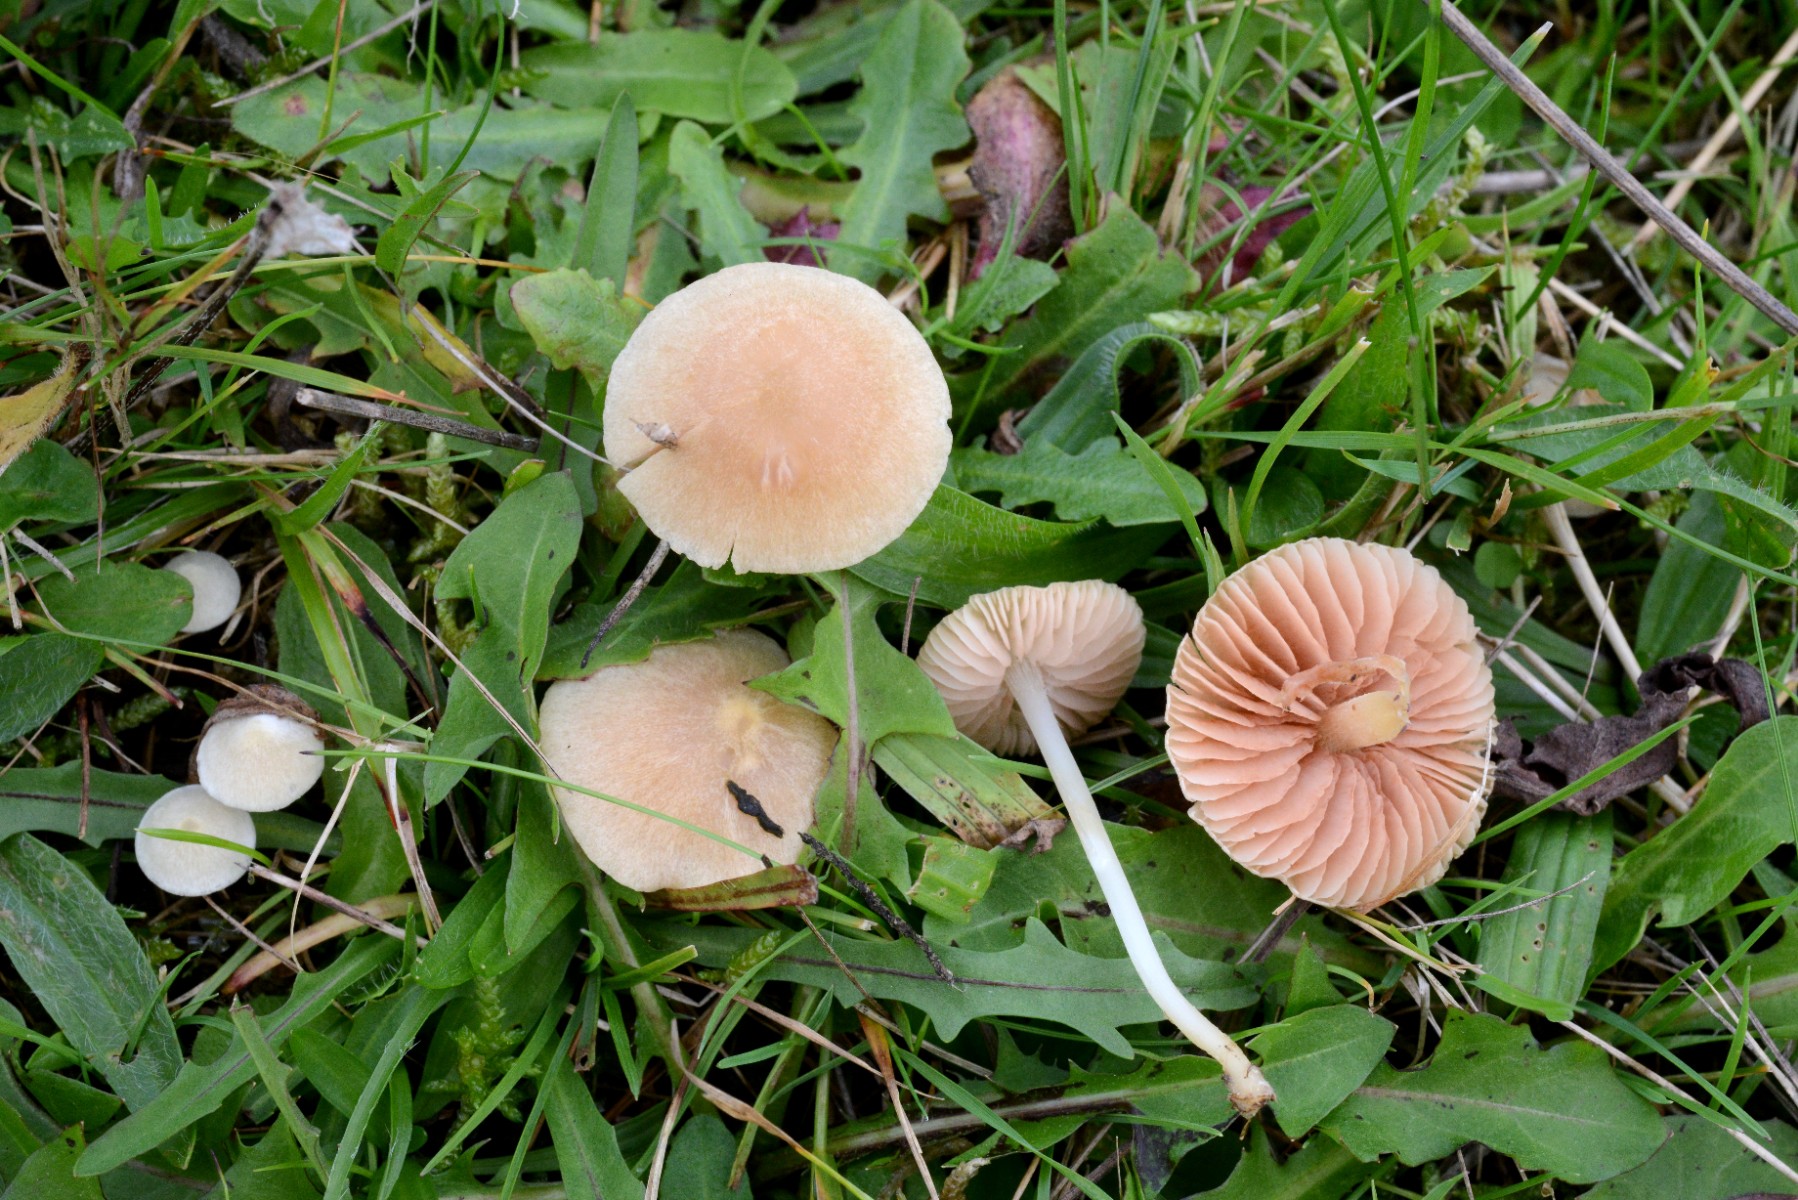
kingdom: Fungi
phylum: Basidiomycota
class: Agaricomycetes
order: Agaricales
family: Entolomataceae
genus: Entoloma
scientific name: Entoloma sericellum
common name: silkehvid rødblad
